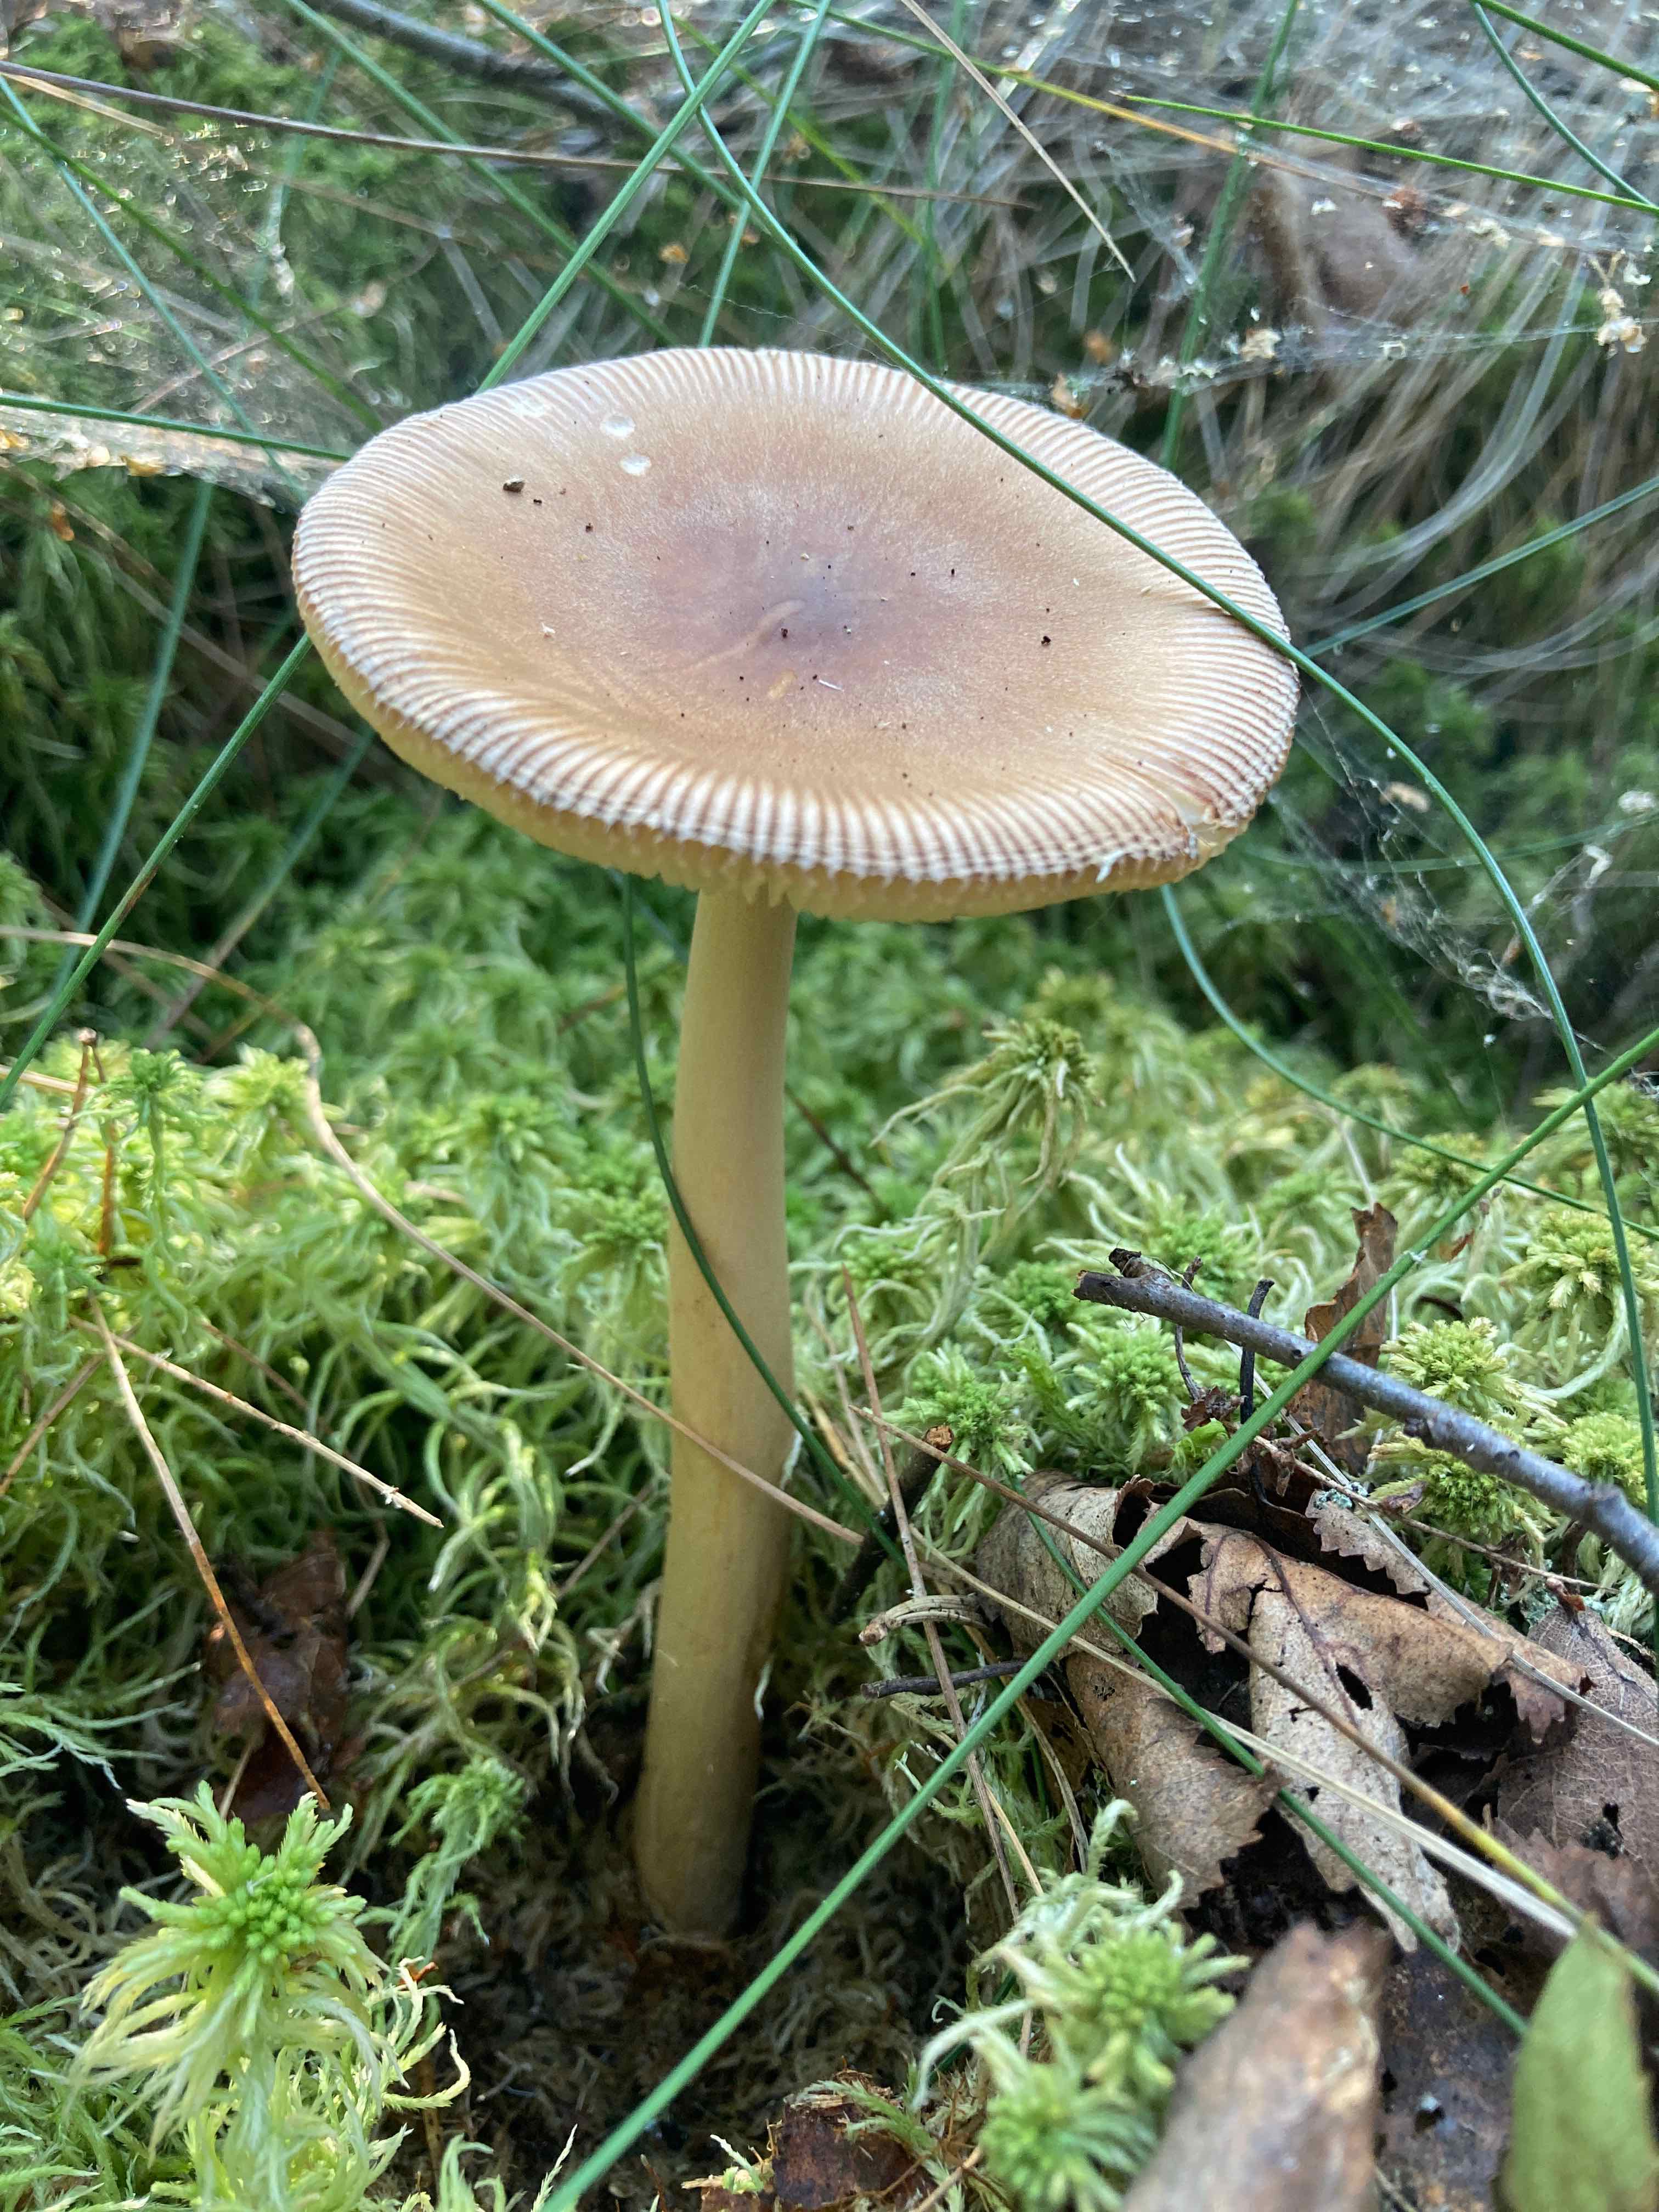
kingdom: Fungi
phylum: Basidiomycota
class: Agaricomycetes
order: Agaricales
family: Amanitaceae
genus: Amanita
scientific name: Amanita fulva
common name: brun kam-fluesvamp
